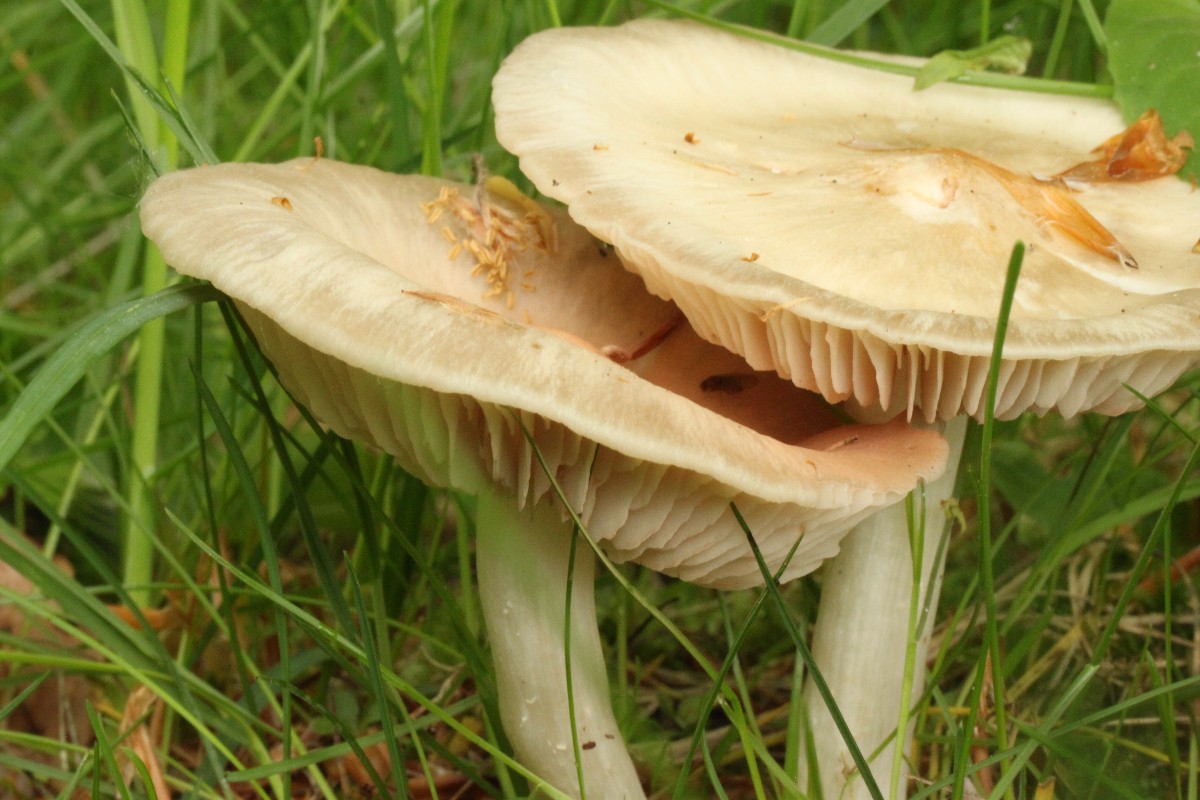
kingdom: Fungi
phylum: Basidiomycota
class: Agaricomycetes
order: Agaricales
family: Entolomataceae
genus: Entoloma
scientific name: Entoloma
